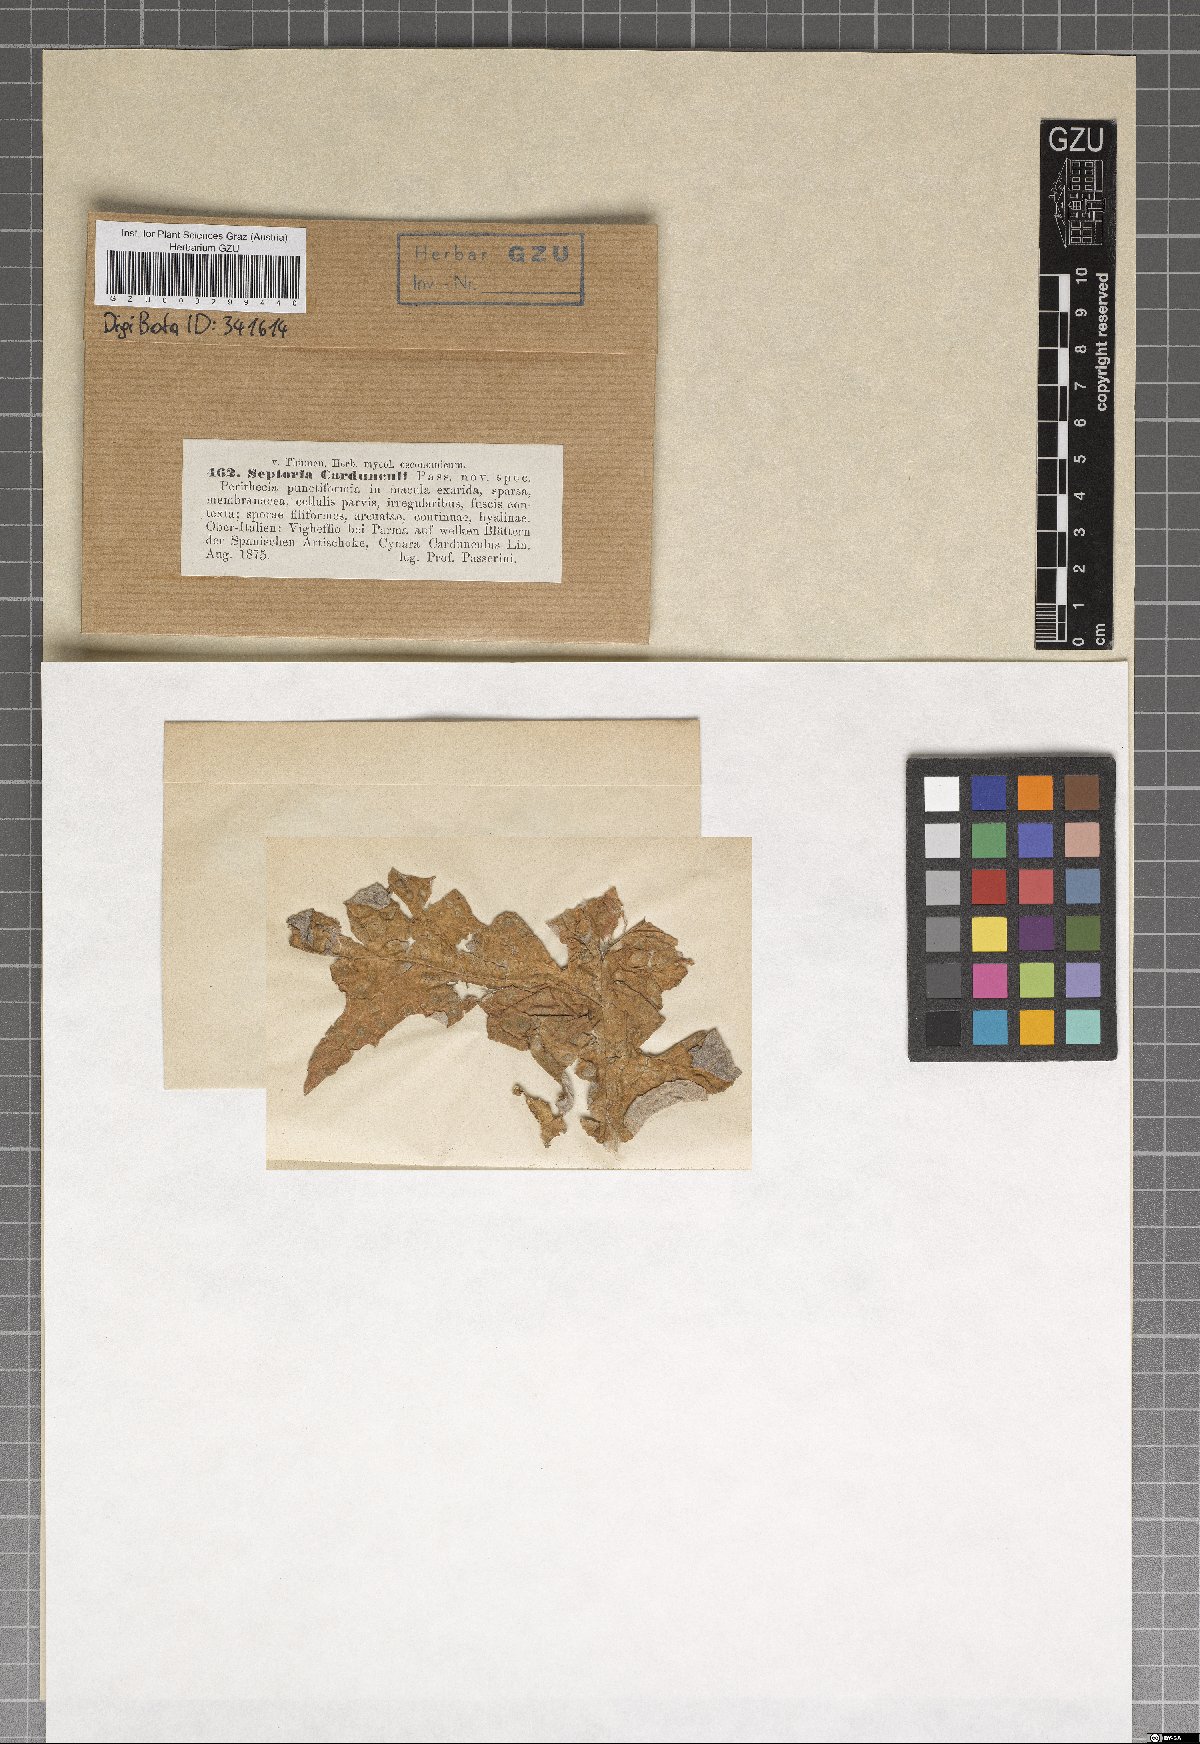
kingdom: Fungi
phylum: Ascomycota
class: Dothideomycetes
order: Mycosphaerellales
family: Mycosphaerellaceae
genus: Septoria
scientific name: Septoria
